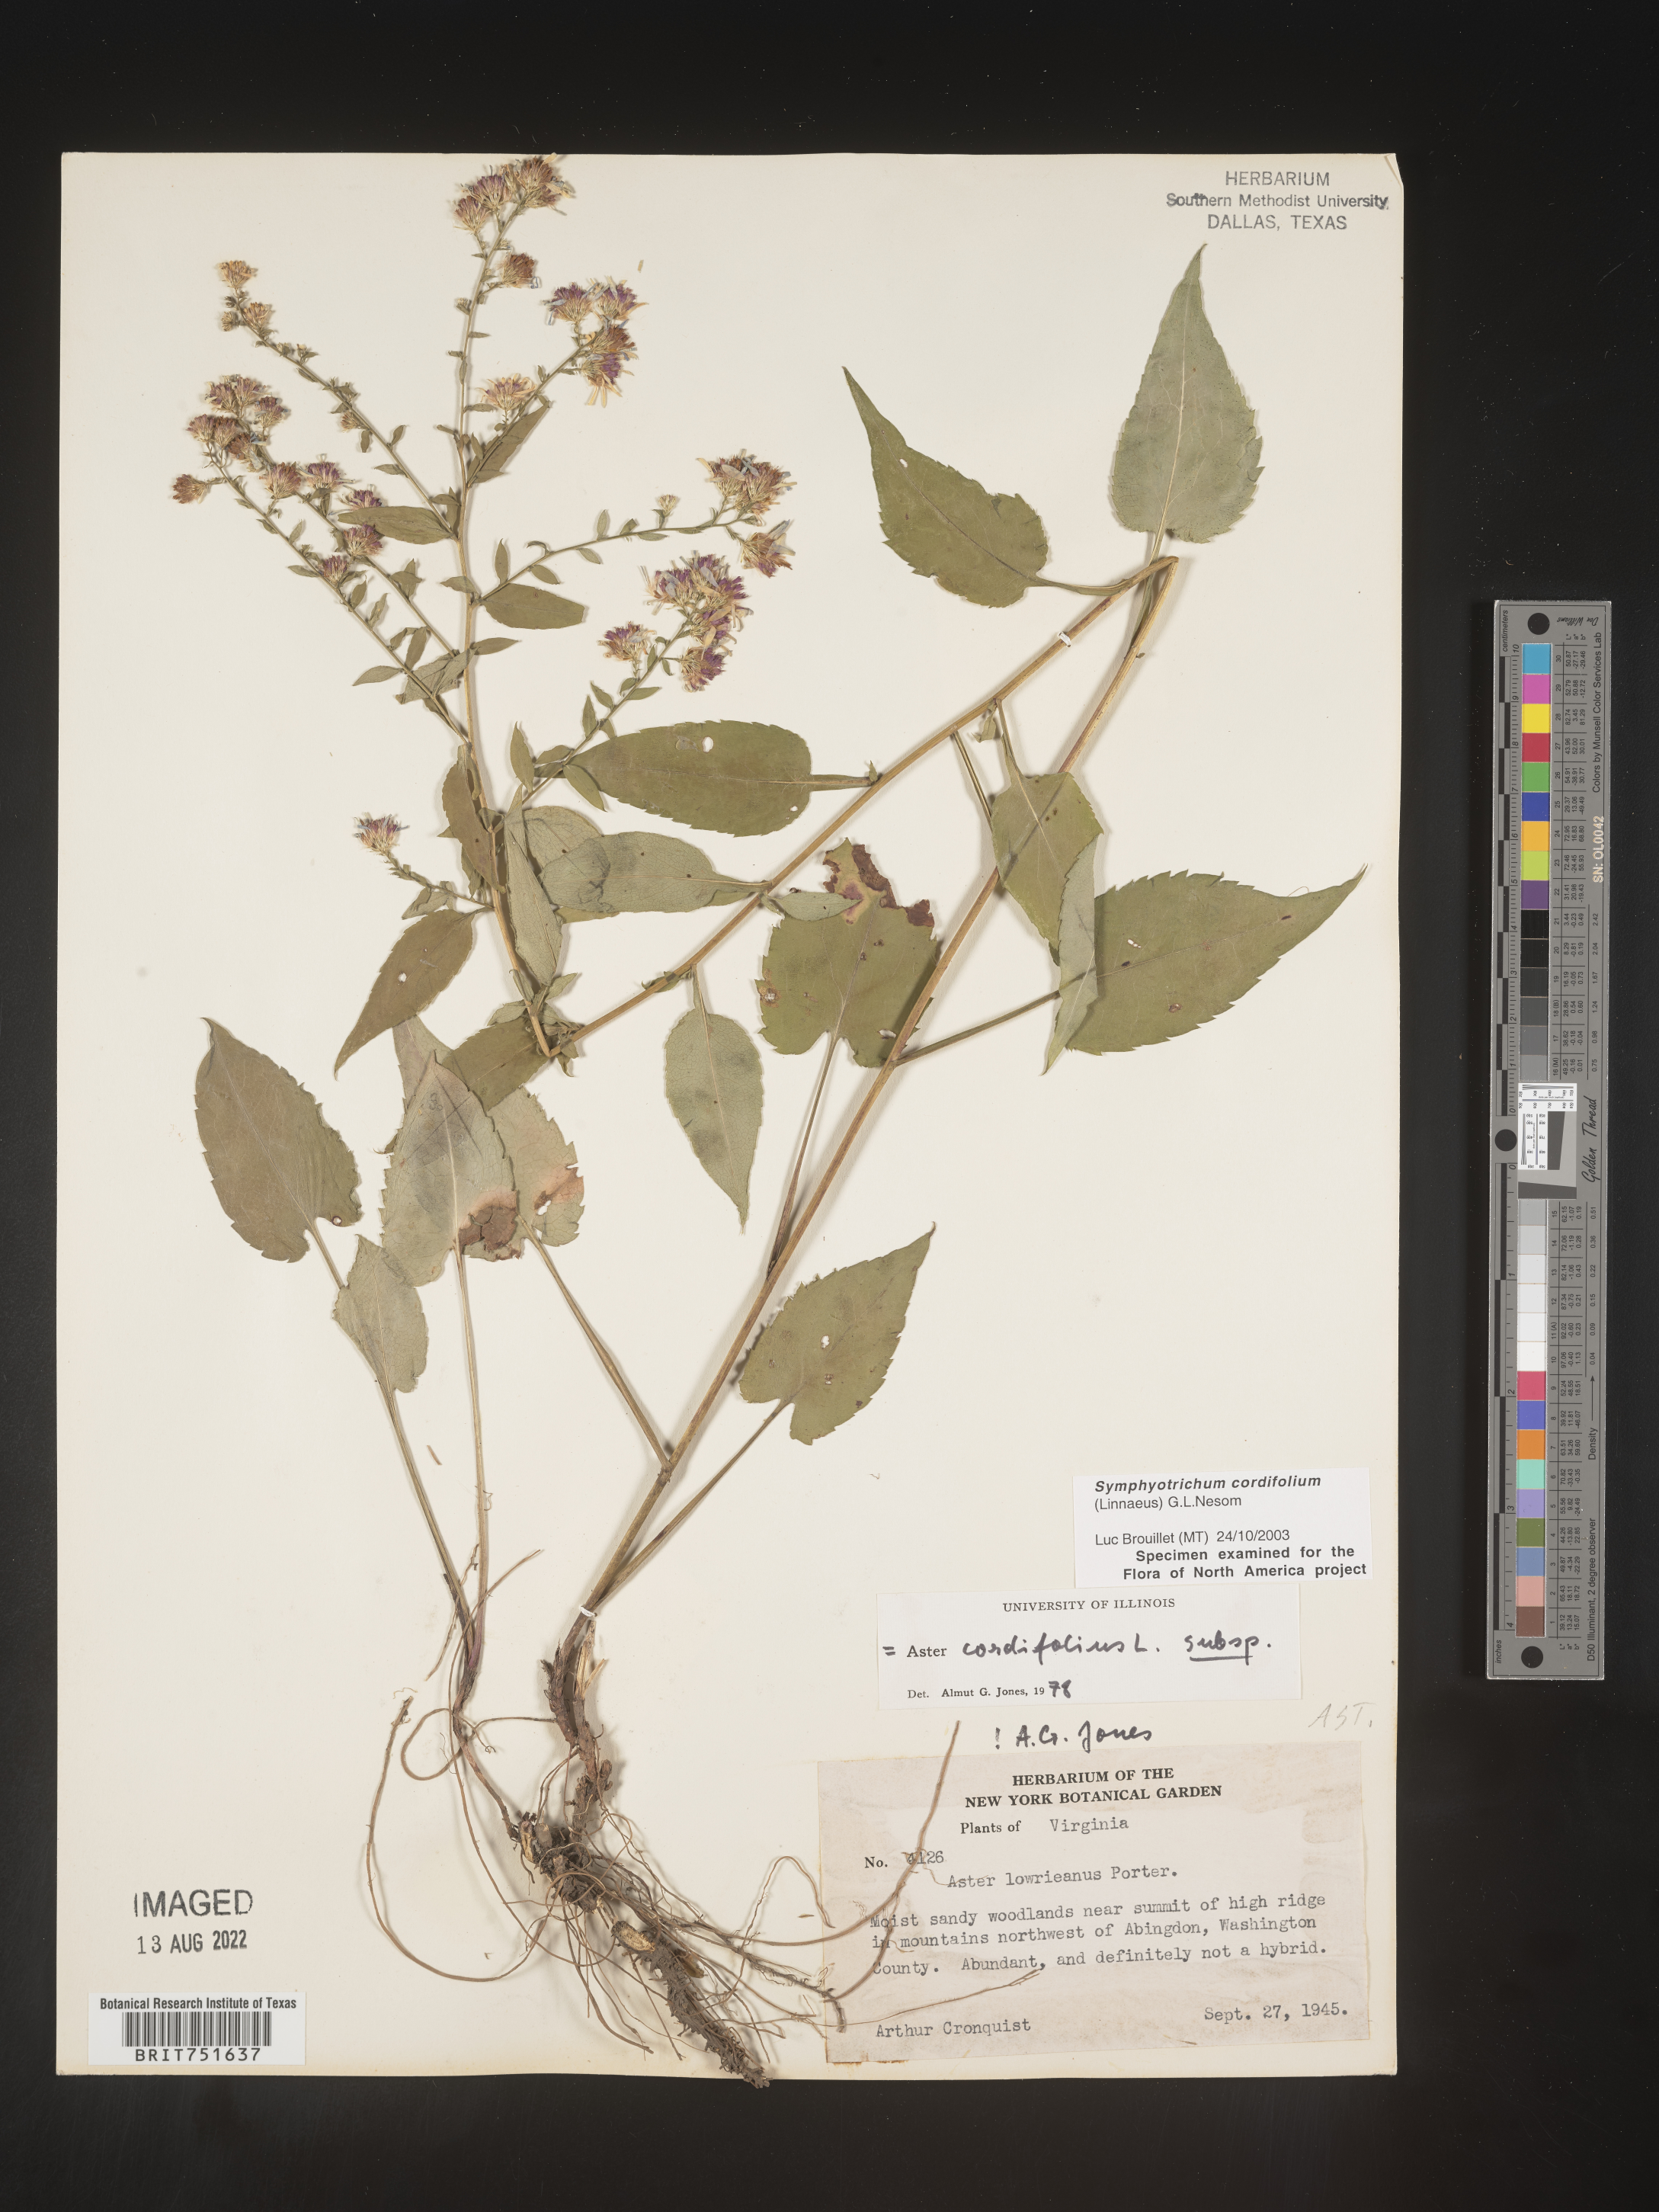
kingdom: Plantae
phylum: Tracheophyta
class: Magnoliopsida
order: Asterales
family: Asteraceae
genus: Symphyotrichum
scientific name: Symphyotrichum cordifolium
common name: Beeweed
